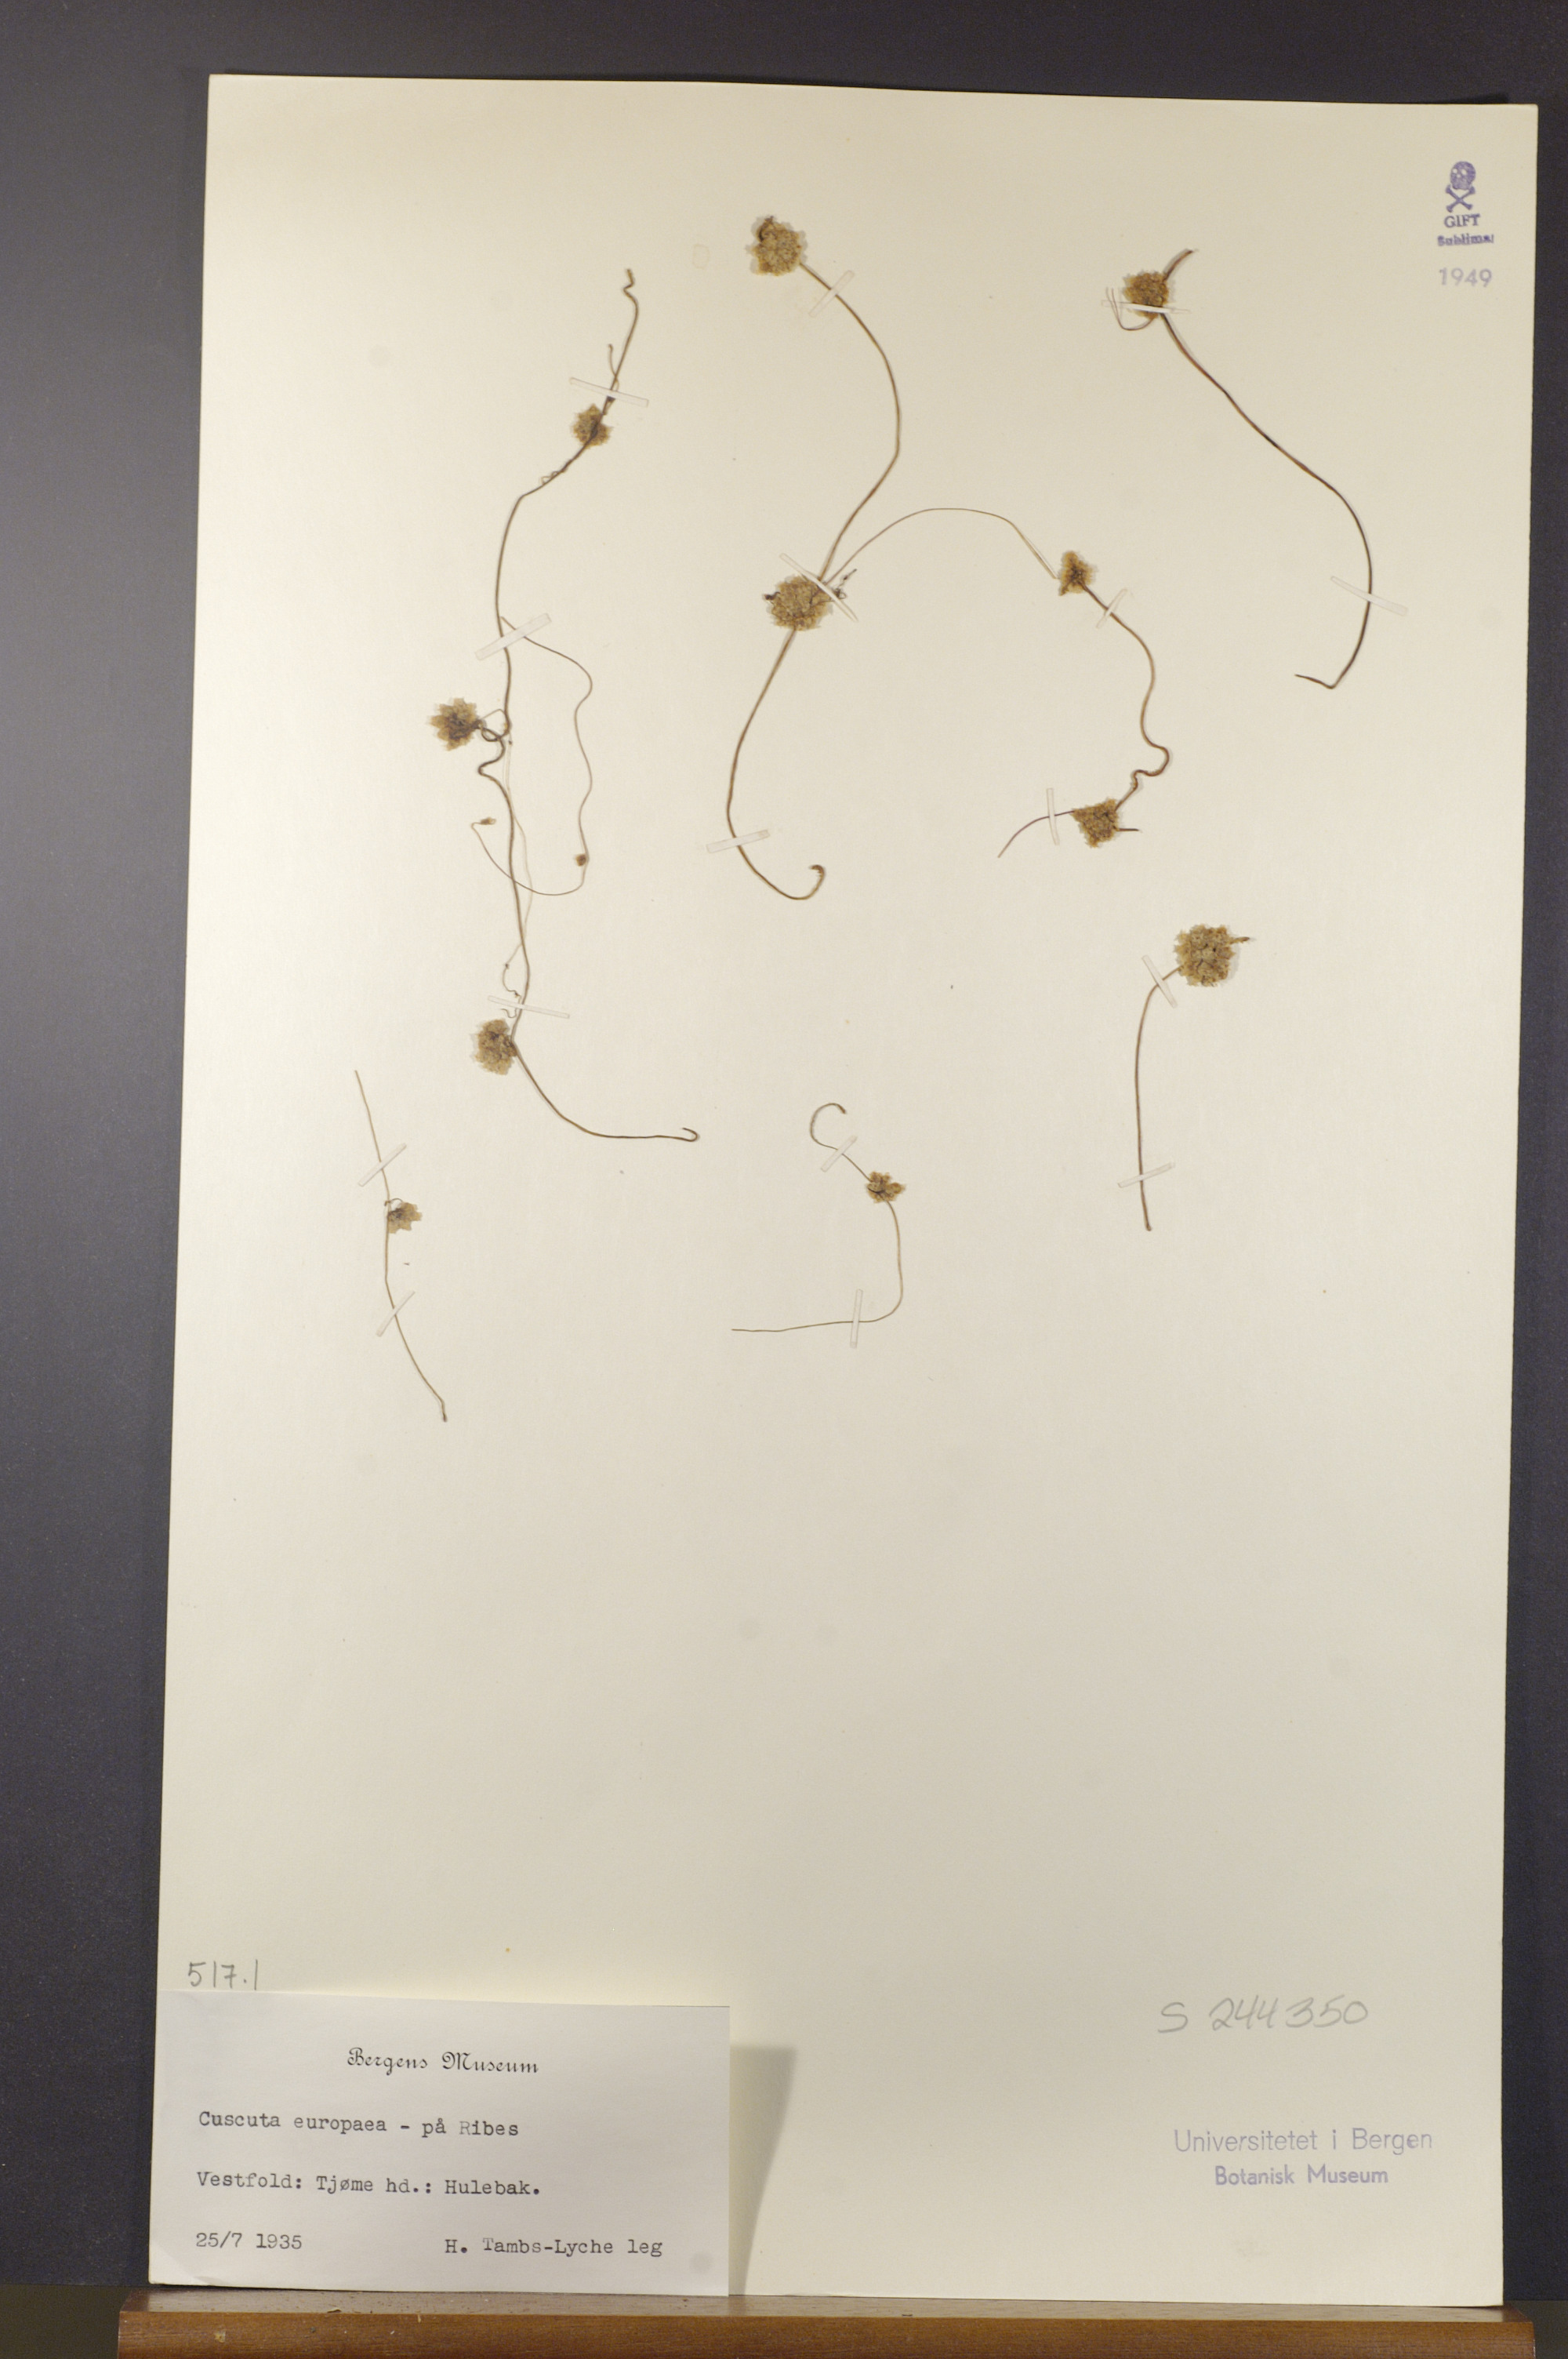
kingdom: Plantae
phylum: Tracheophyta
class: Magnoliopsida
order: Solanales
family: Convolvulaceae
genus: Cuscuta
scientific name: Cuscuta europaea
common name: Greater dodder
